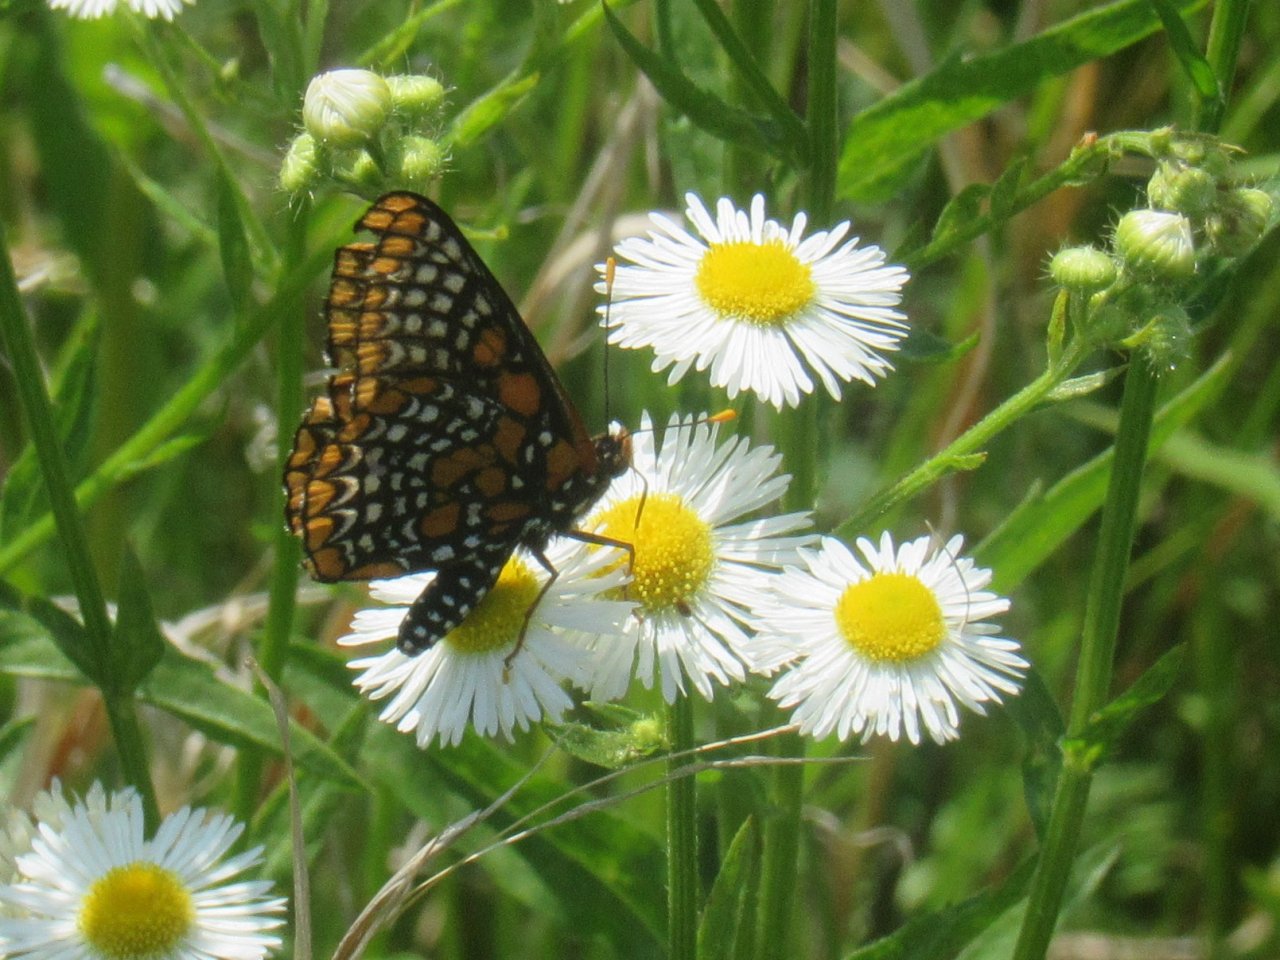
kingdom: Animalia
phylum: Arthropoda
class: Insecta
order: Lepidoptera
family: Nymphalidae
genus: Euphydryas
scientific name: Euphydryas phaeton
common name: Baltimore Checkerspot
